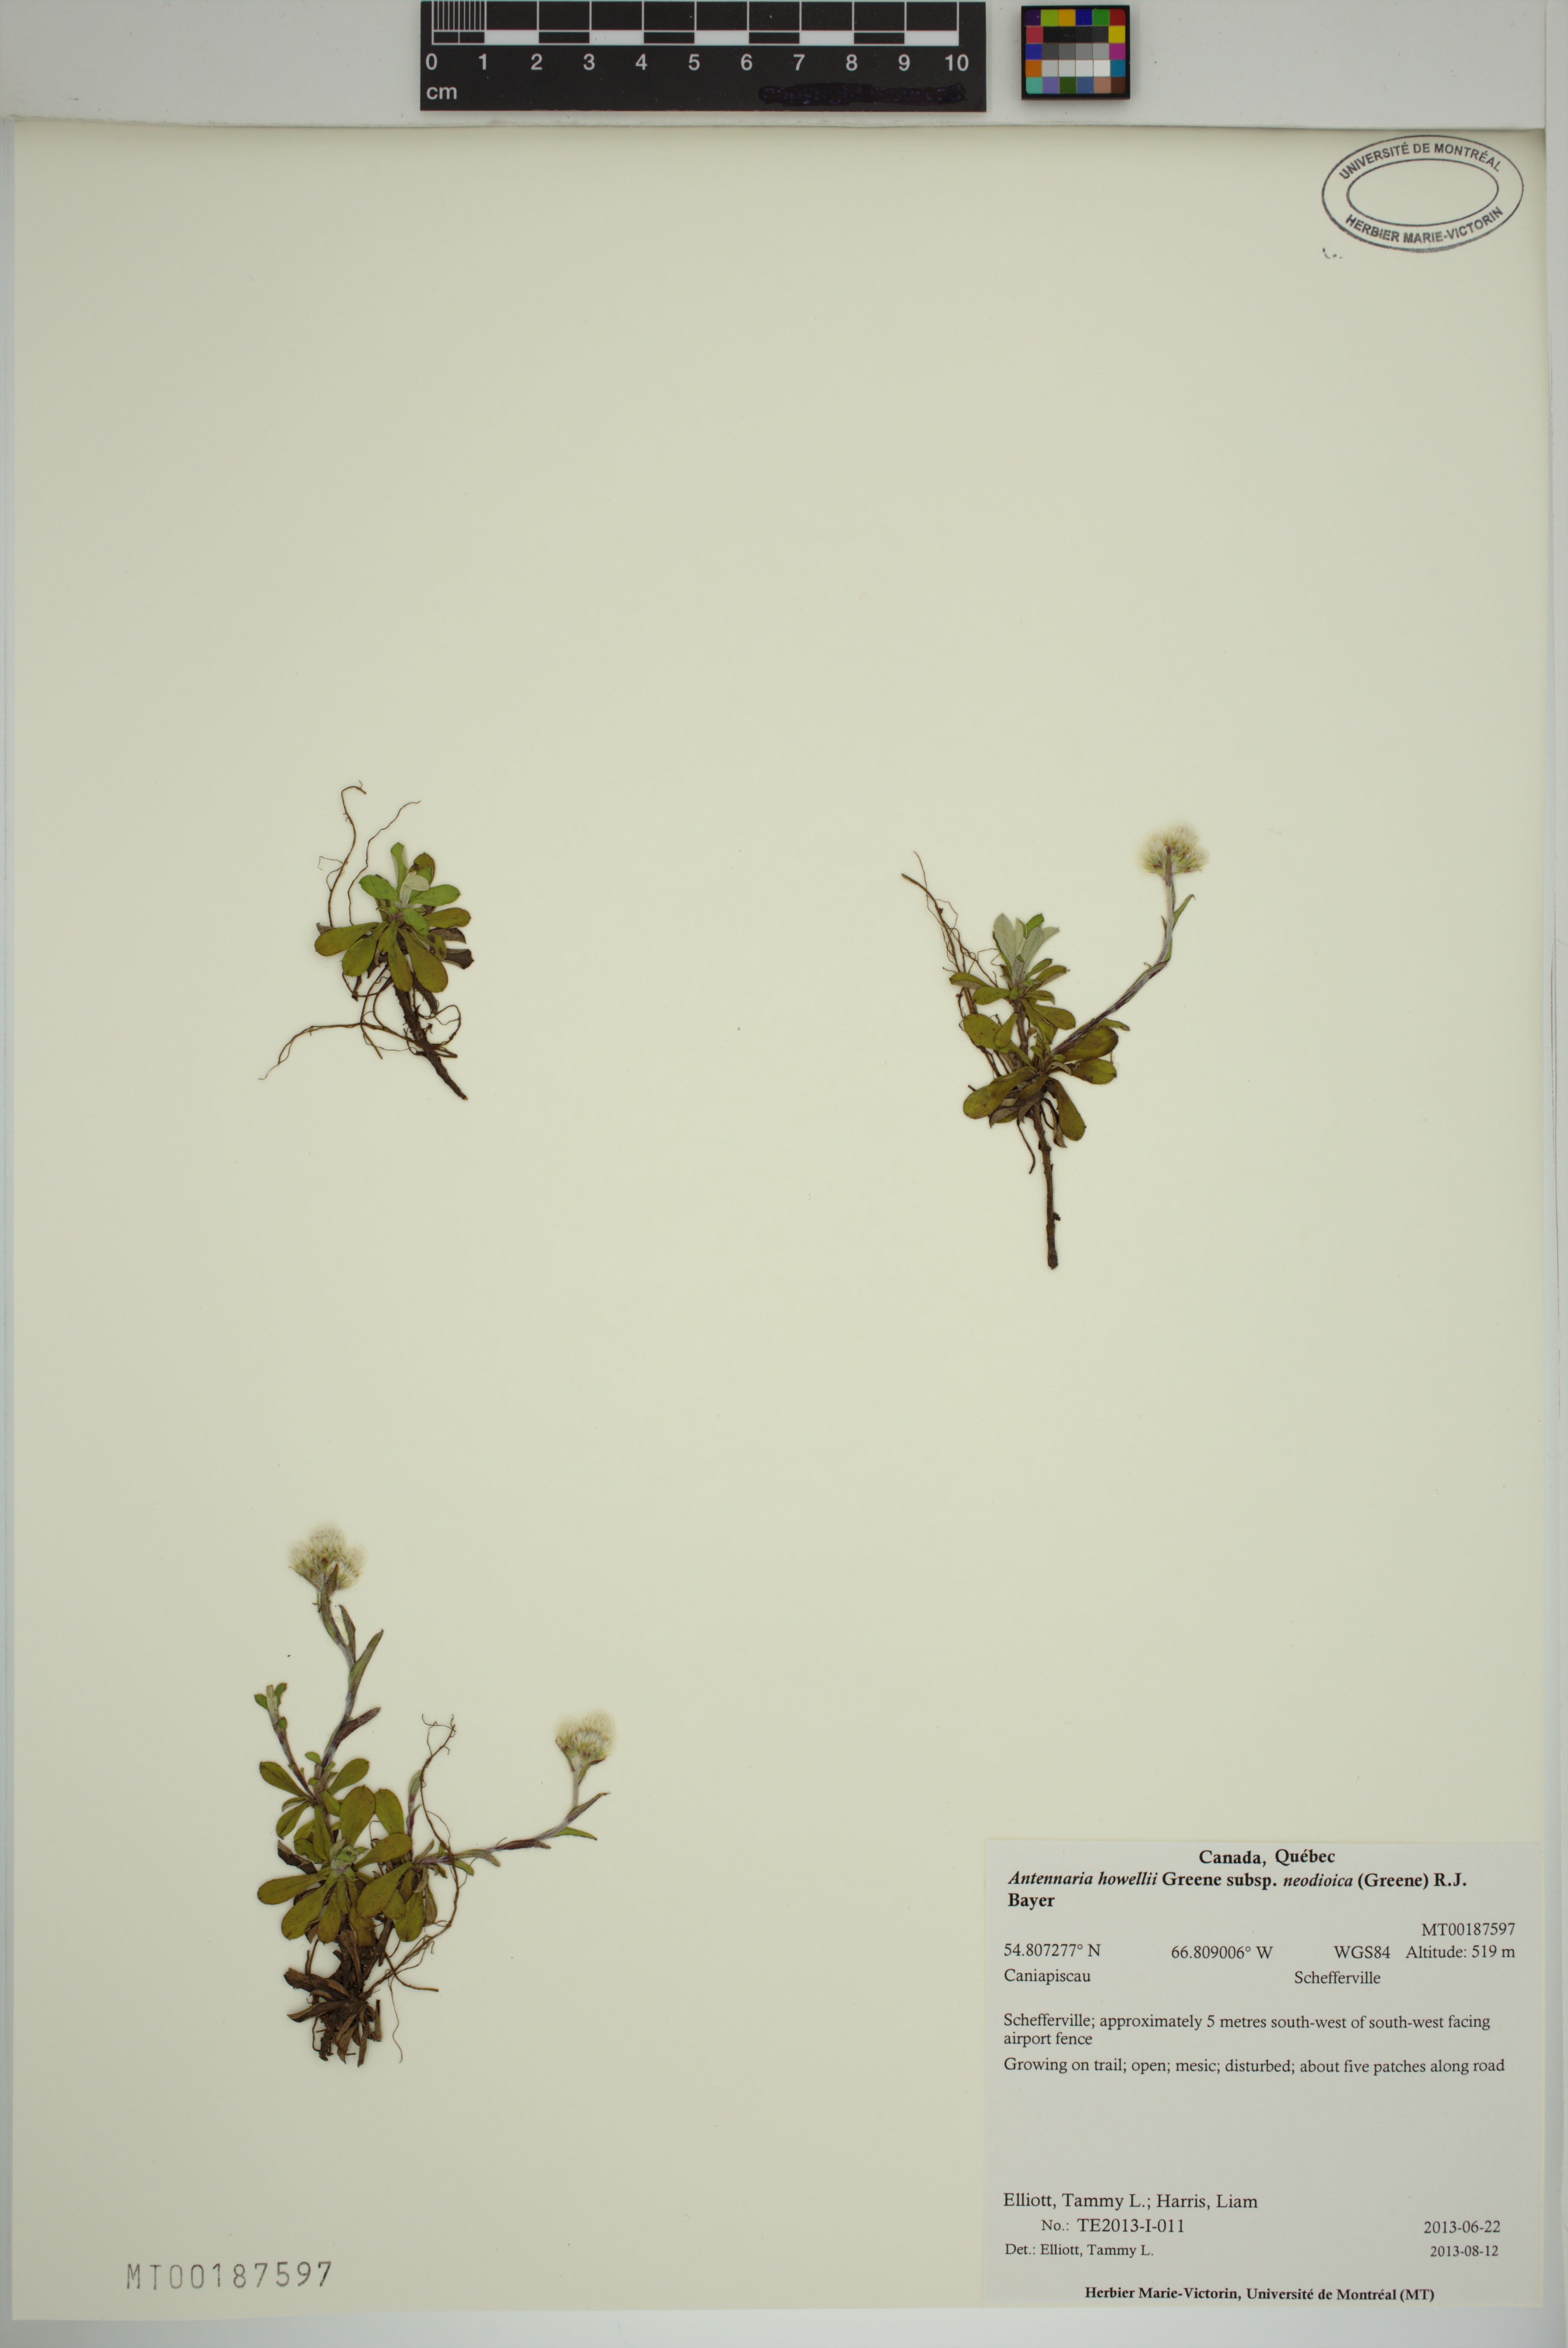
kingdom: Plantae
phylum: Tracheophyta
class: Magnoliopsida
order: Asterales
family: Asteraceae
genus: Antennaria
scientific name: Antennaria howellii
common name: Howell's pussytoes
